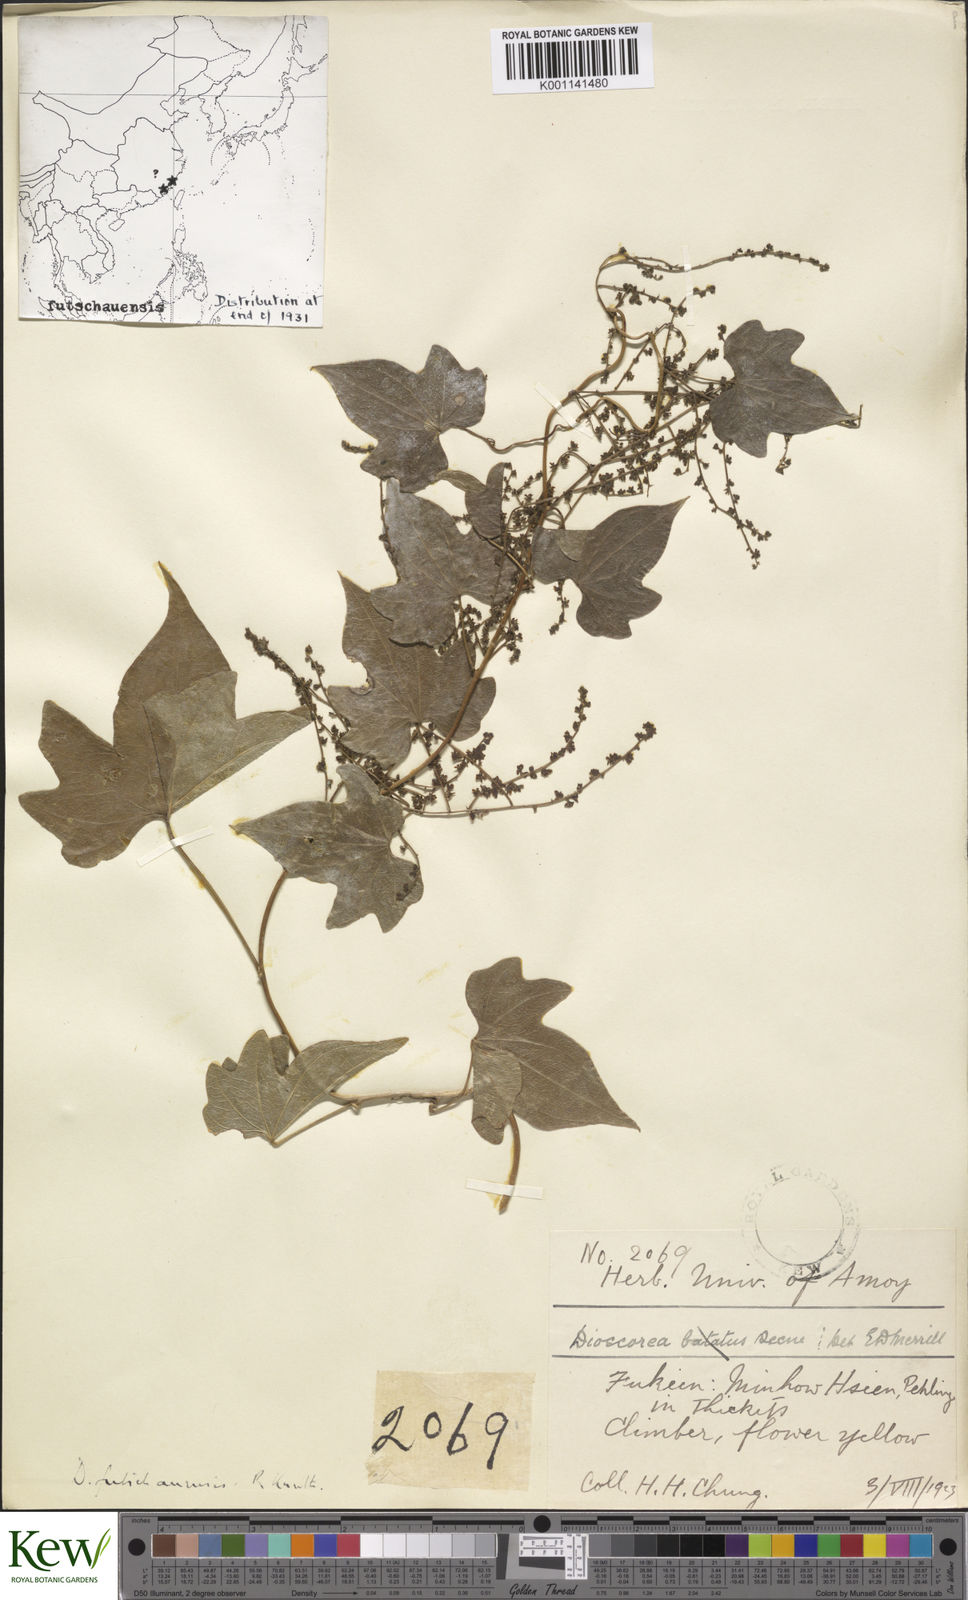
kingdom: Plantae
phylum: Tracheophyta
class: Liliopsida
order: Dioscoreales
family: Dioscoreaceae
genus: Dioscorea
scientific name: Dioscorea futschauensis
